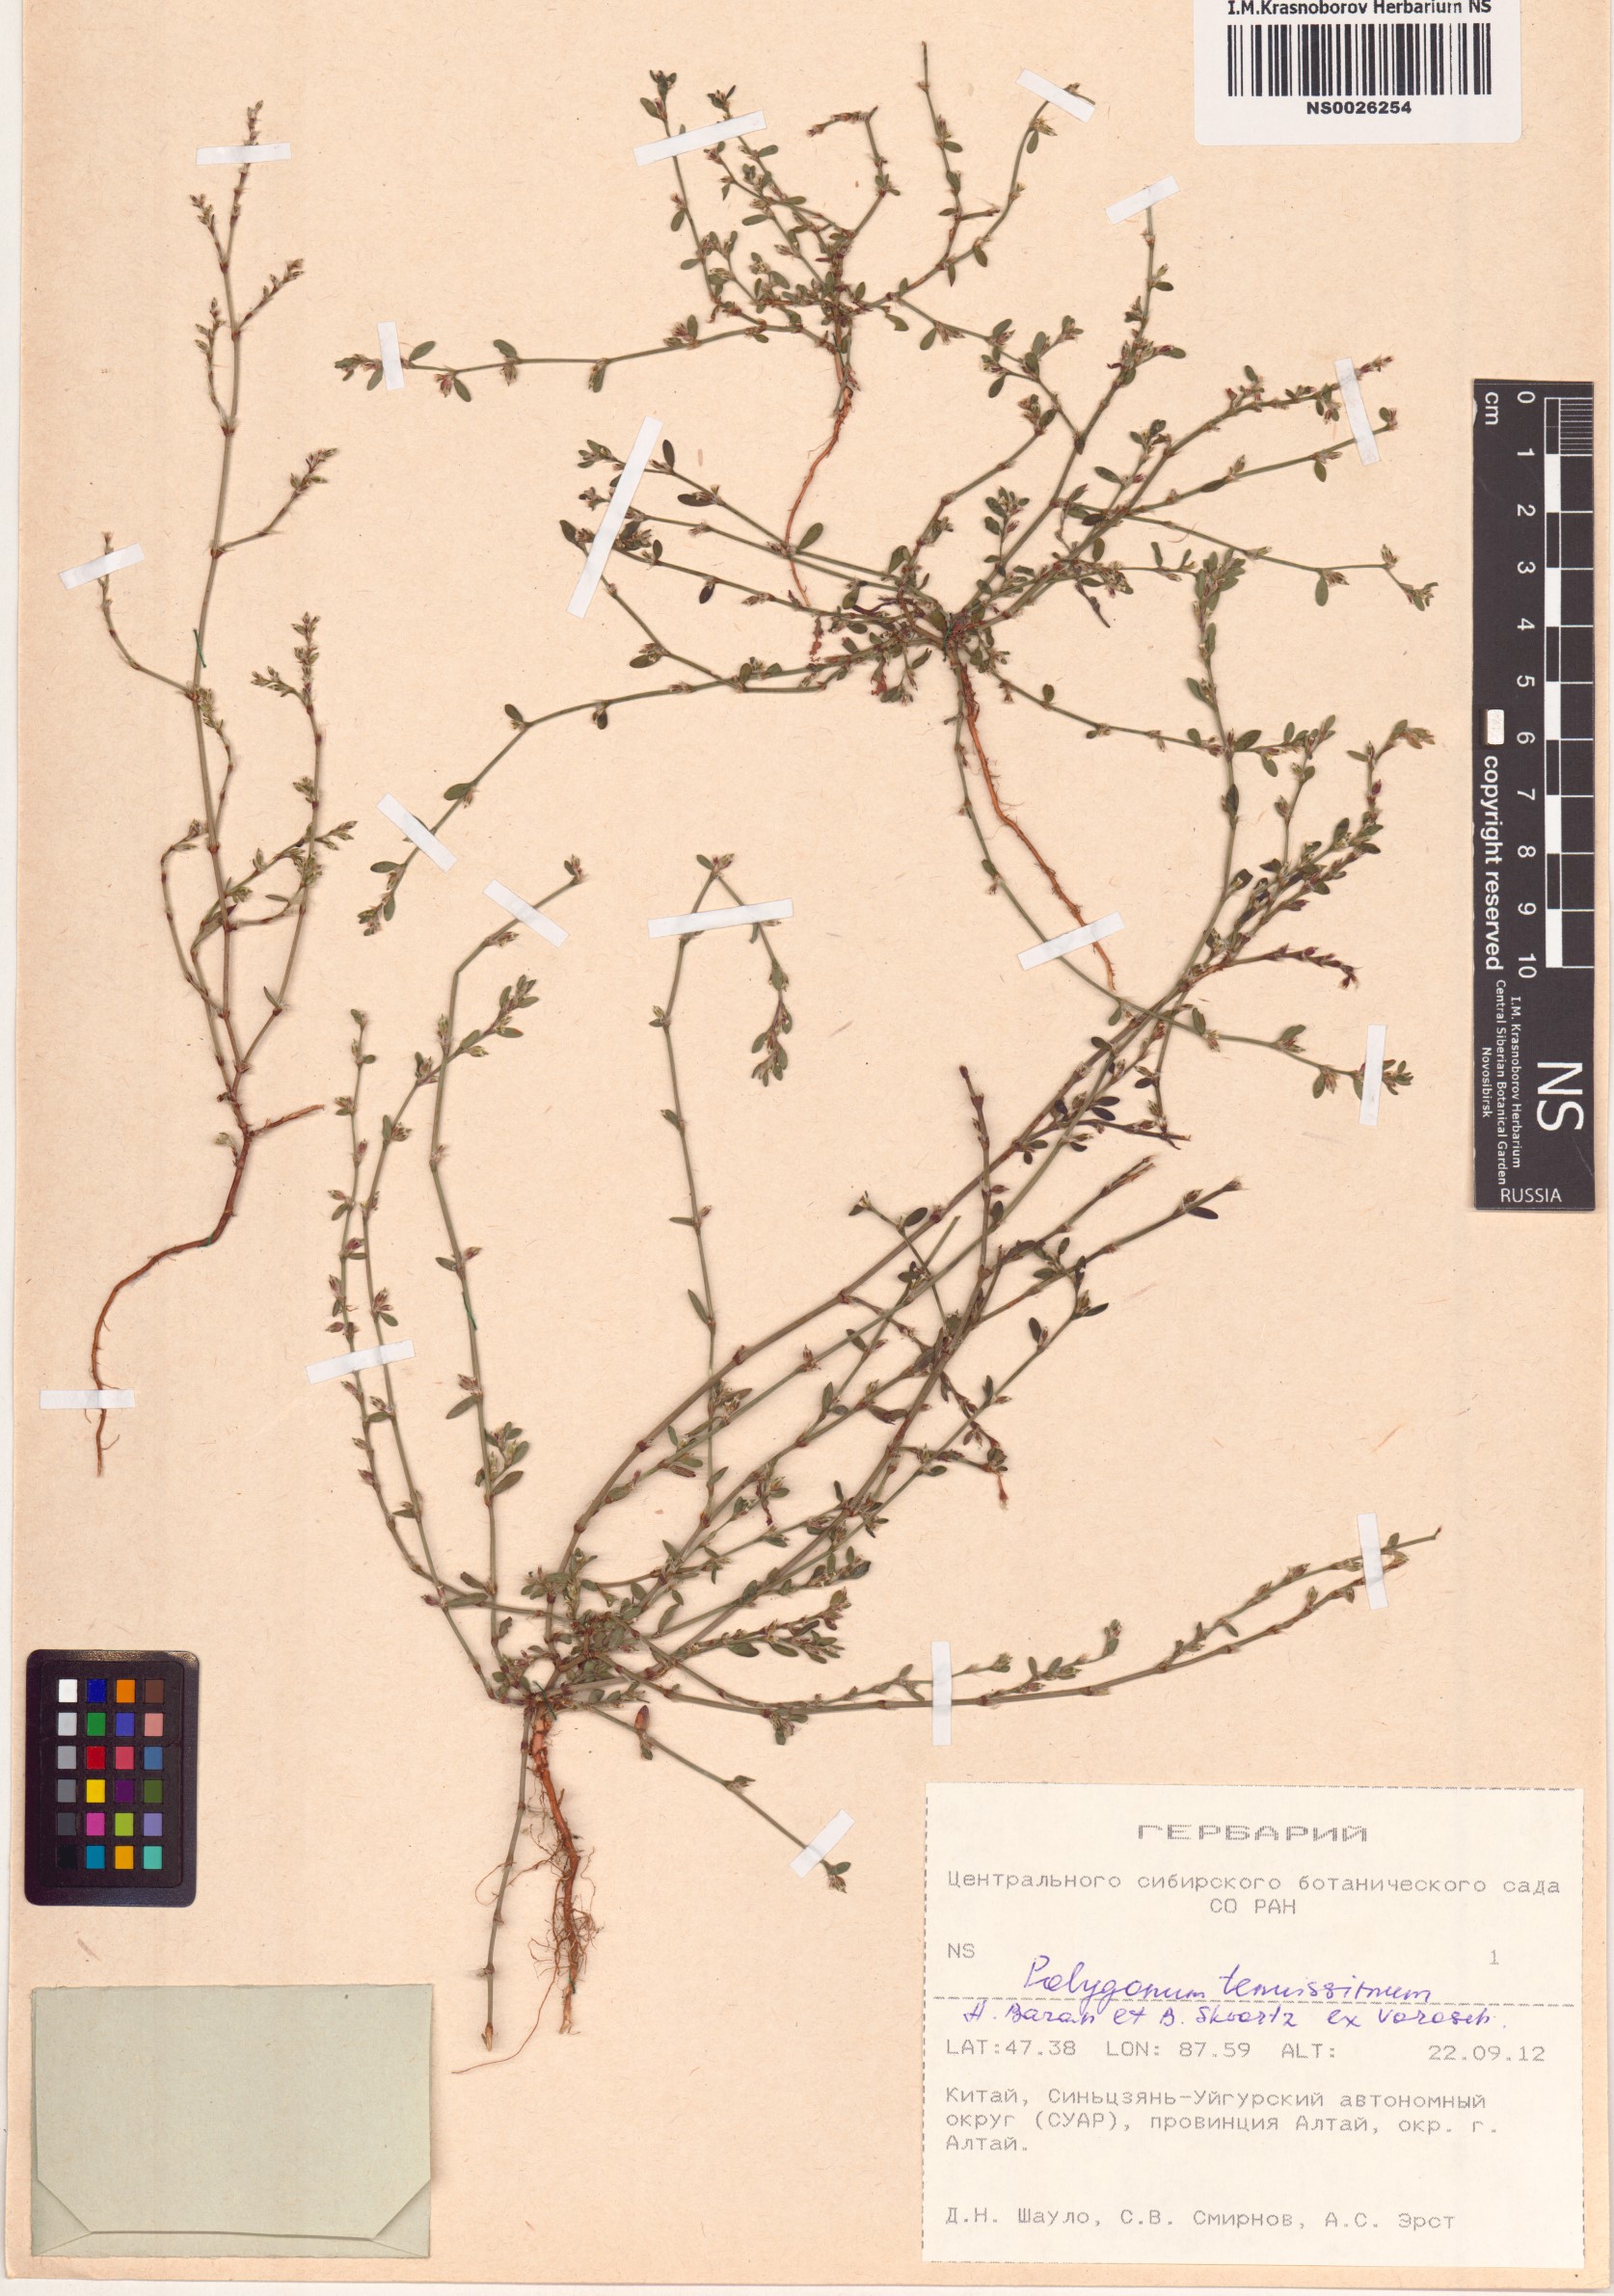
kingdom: Plantae
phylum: Tracheophyta
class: Magnoliopsida
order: Caryophyllales
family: Polygonaceae
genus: Polygonum
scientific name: Polygonum tenuissimum
